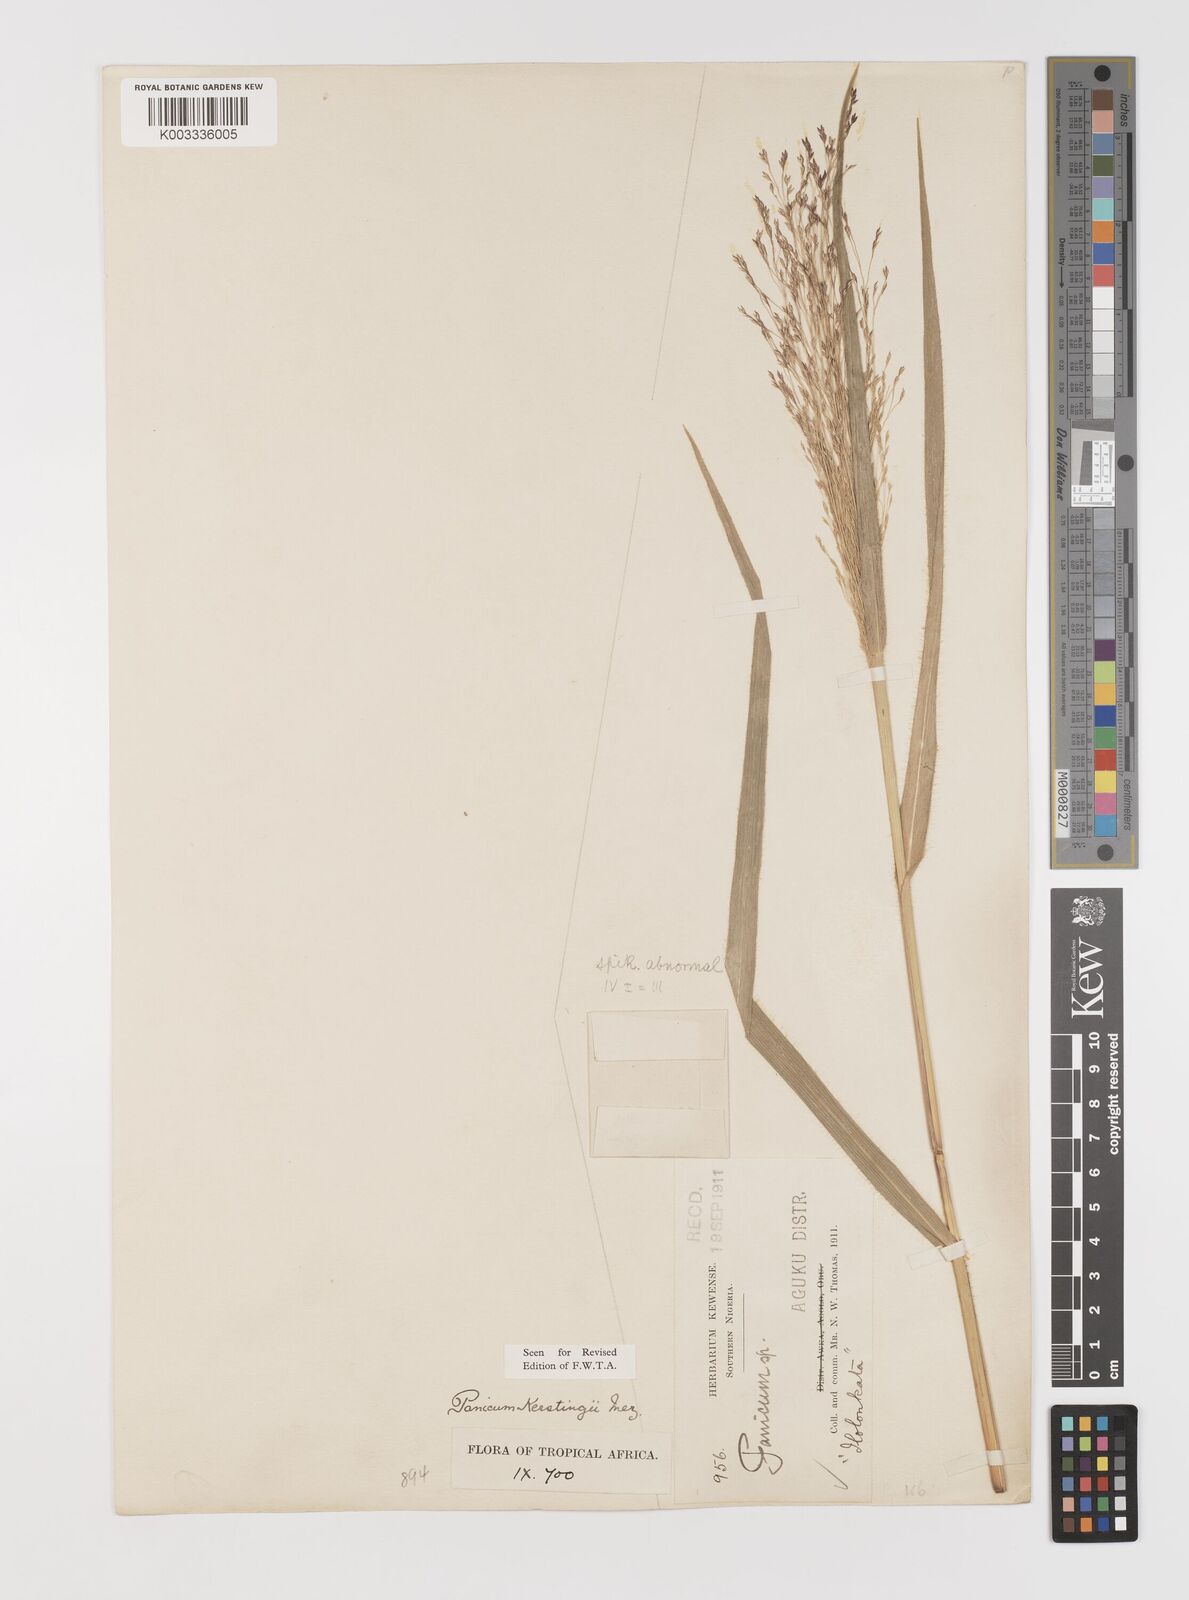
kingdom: Plantae
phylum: Tracheophyta
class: Liliopsida
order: Poales
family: Poaceae
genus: Panicum
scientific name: Panicum pansum
